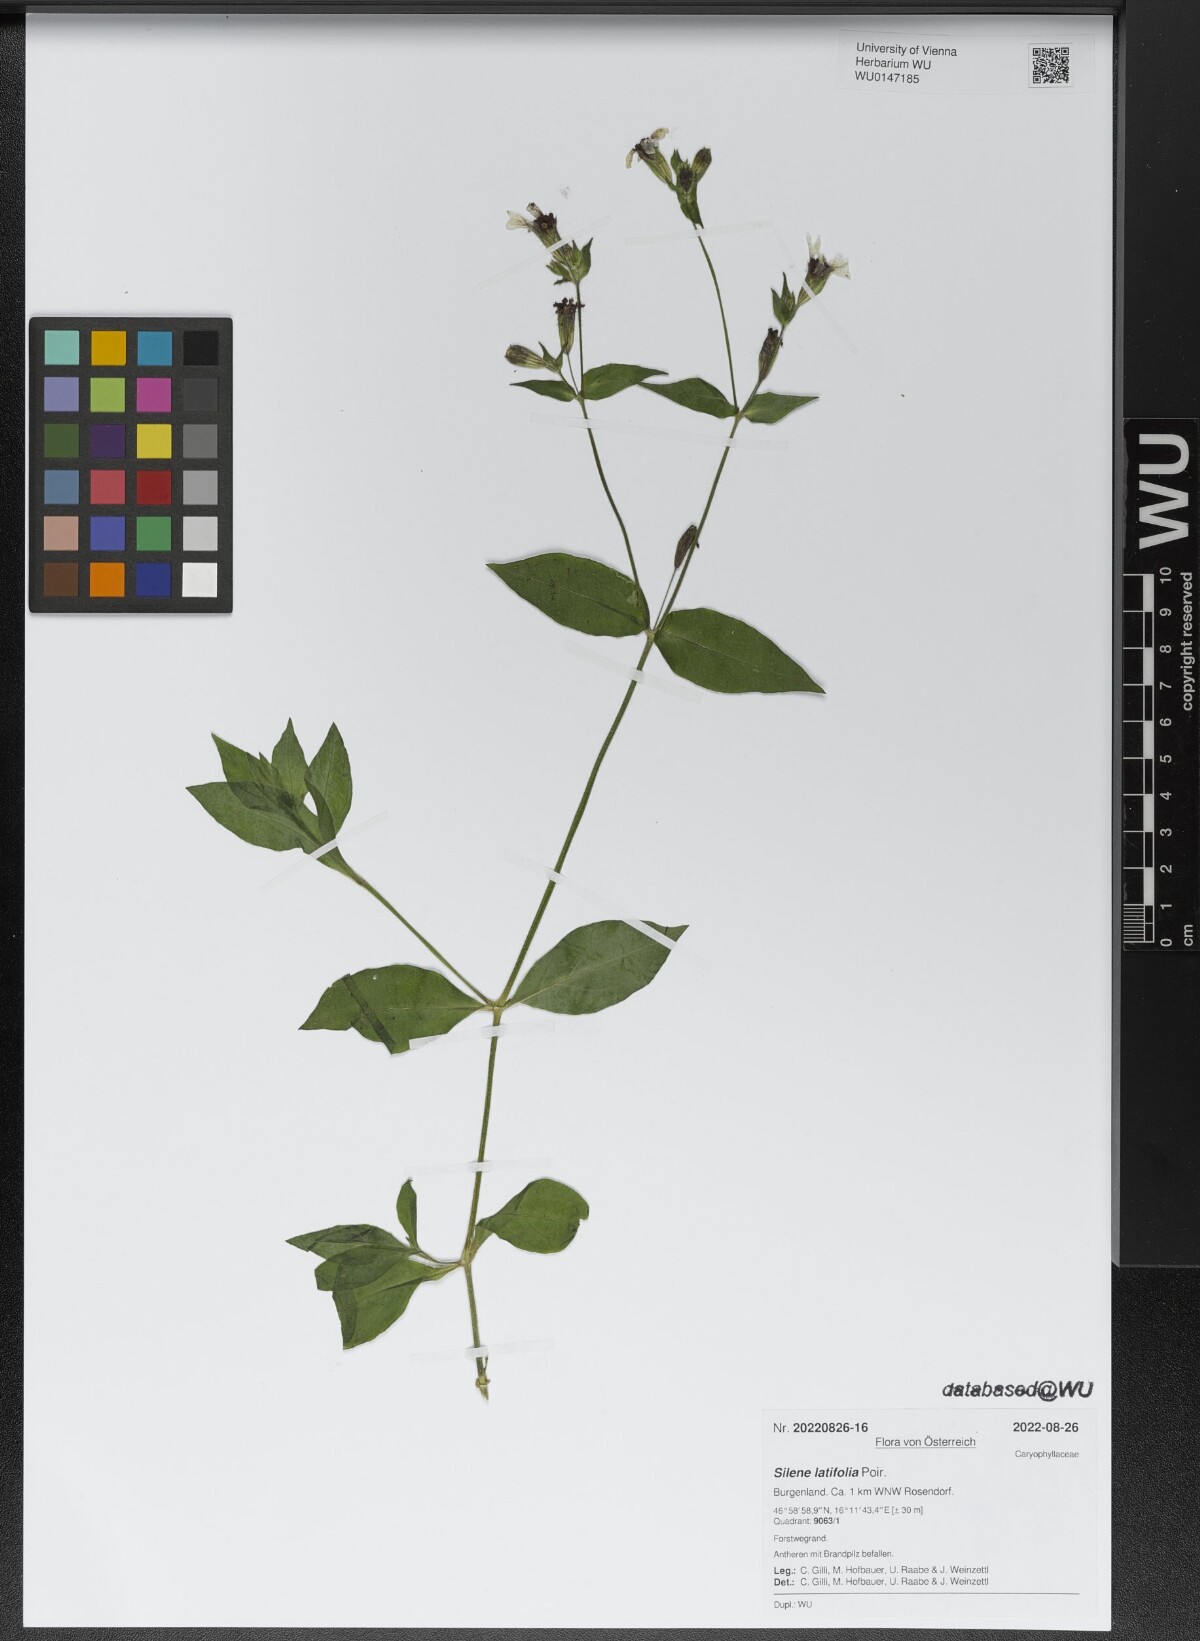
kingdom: Plantae
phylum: Tracheophyta
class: Magnoliopsida
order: Caryophyllales
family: Caryophyllaceae
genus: Silene
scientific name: Silene latifolia
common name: White campion
